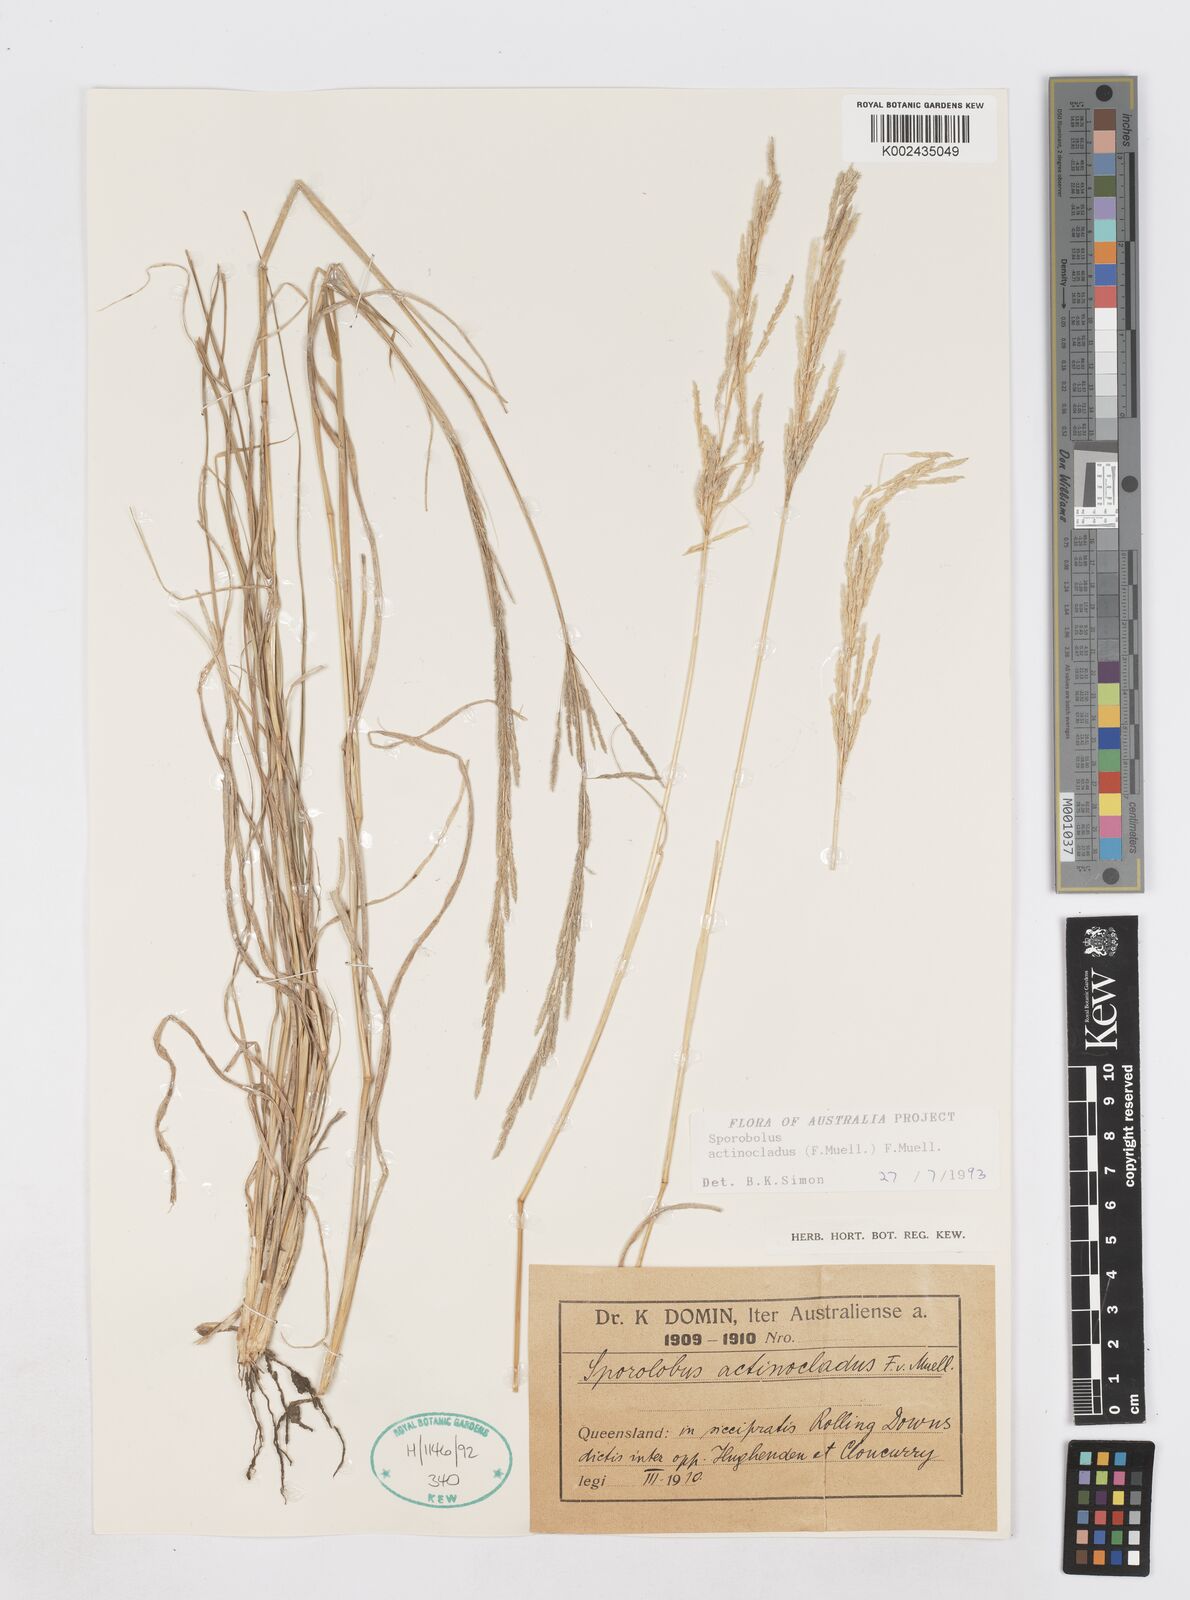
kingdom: Plantae
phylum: Tracheophyta
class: Liliopsida
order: Poales
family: Poaceae
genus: Sporobolus
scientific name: Sporobolus actinocladus
